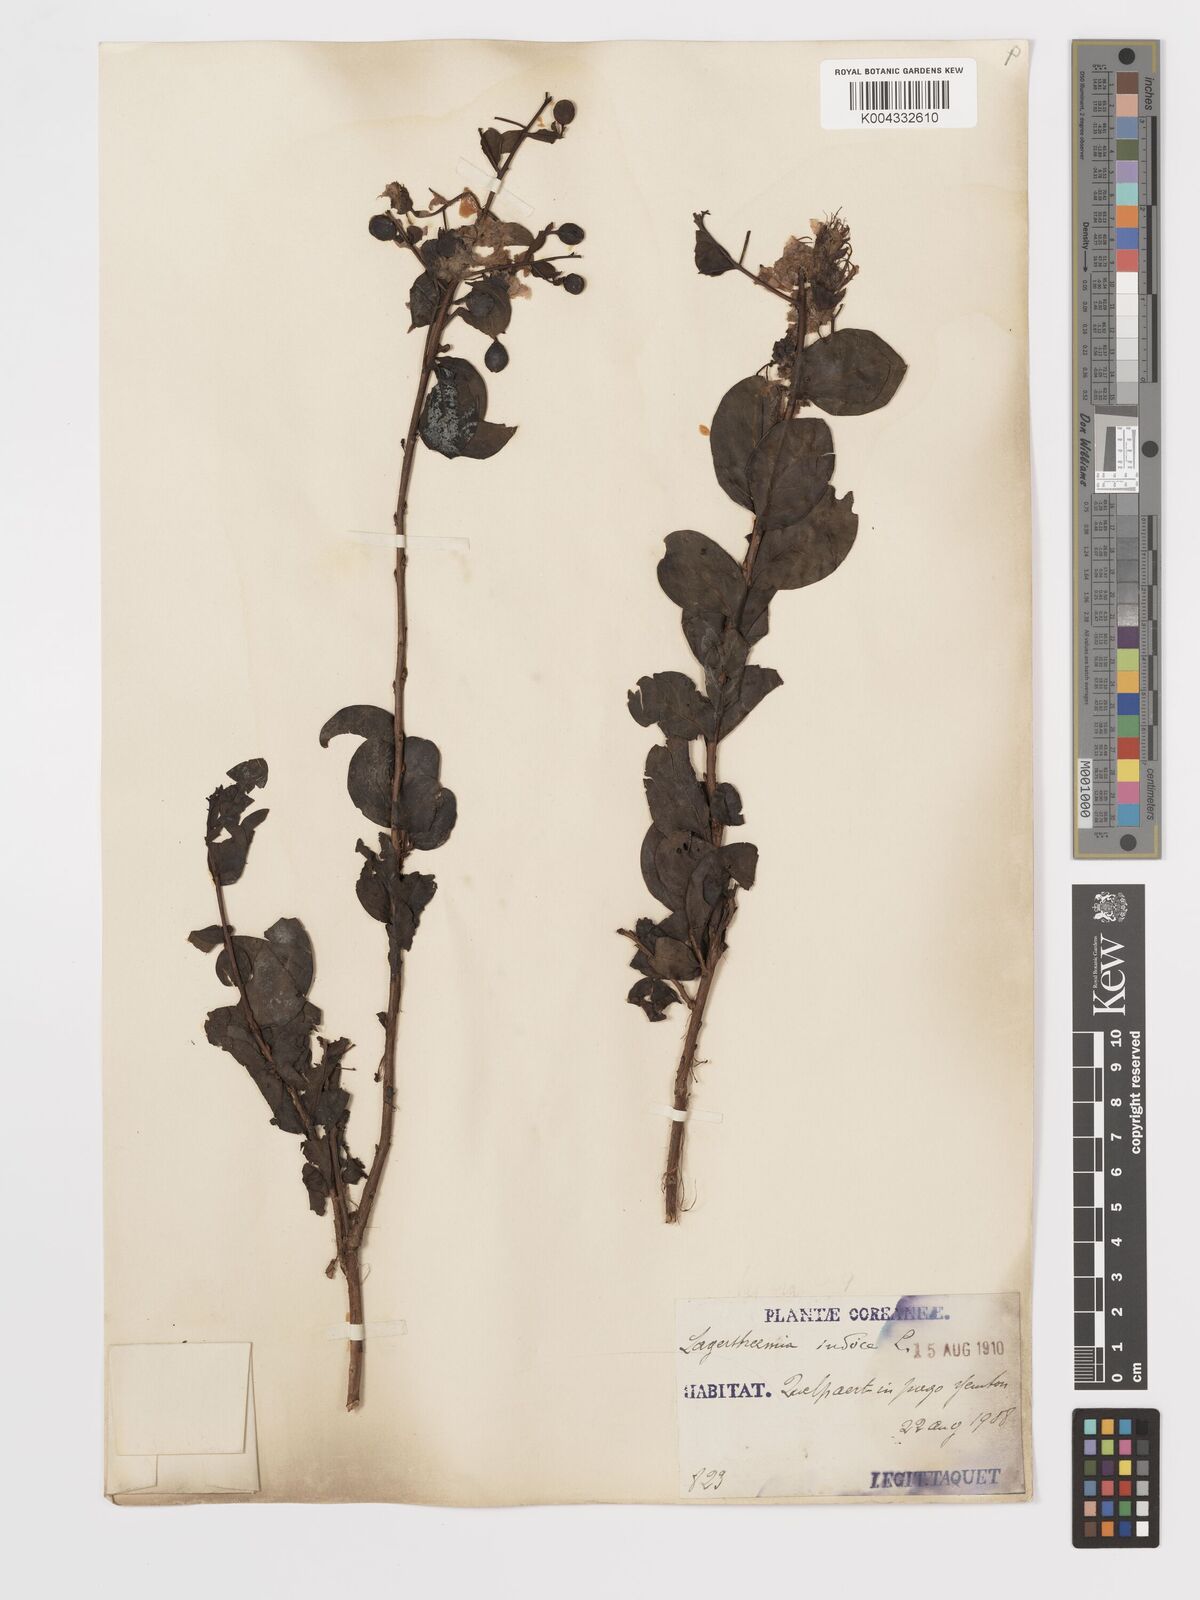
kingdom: Plantae
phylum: Tracheophyta
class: Magnoliopsida
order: Myrtales
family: Lythraceae
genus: Lagerstroemia
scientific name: Lagerstroemia indica
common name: Crape-myrtle
